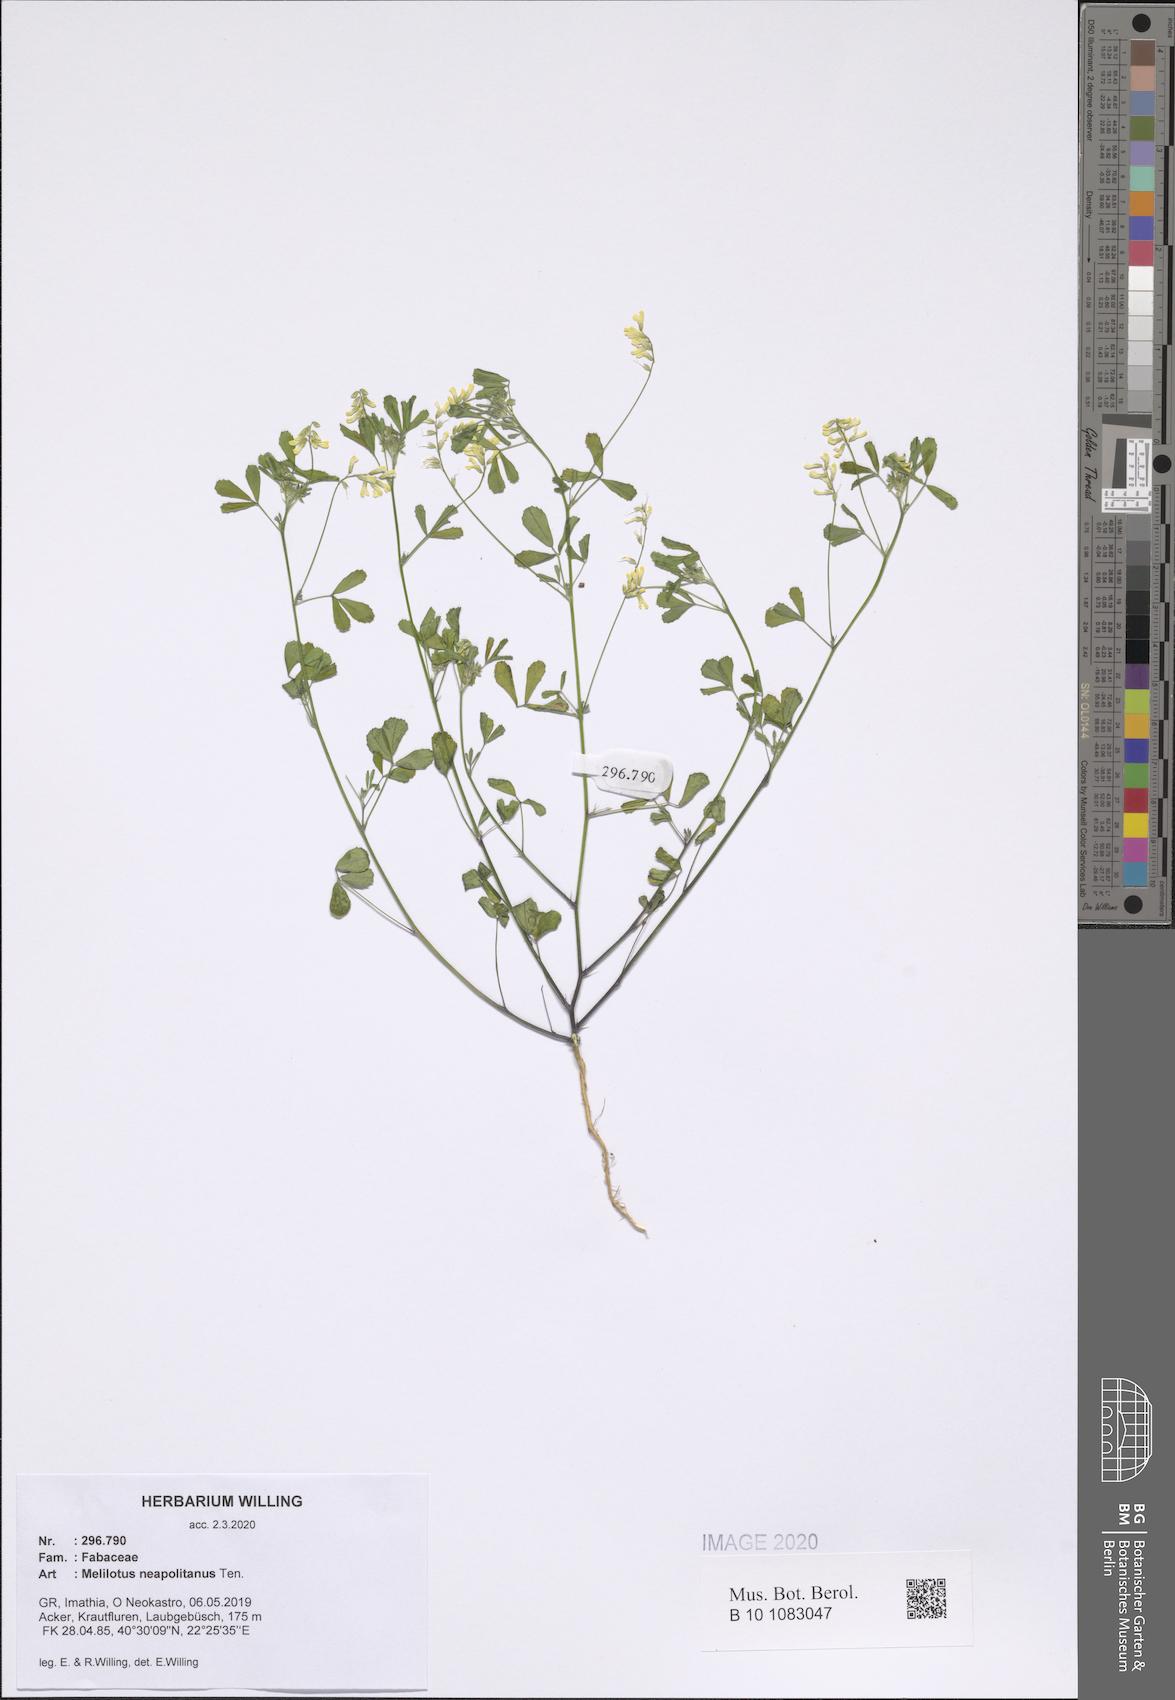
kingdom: Plantae
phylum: Tracheophyta
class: Magnoliopsida
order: Fabales
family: Fabaceae
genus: Melilotus
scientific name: Melilotus neapolitanus
